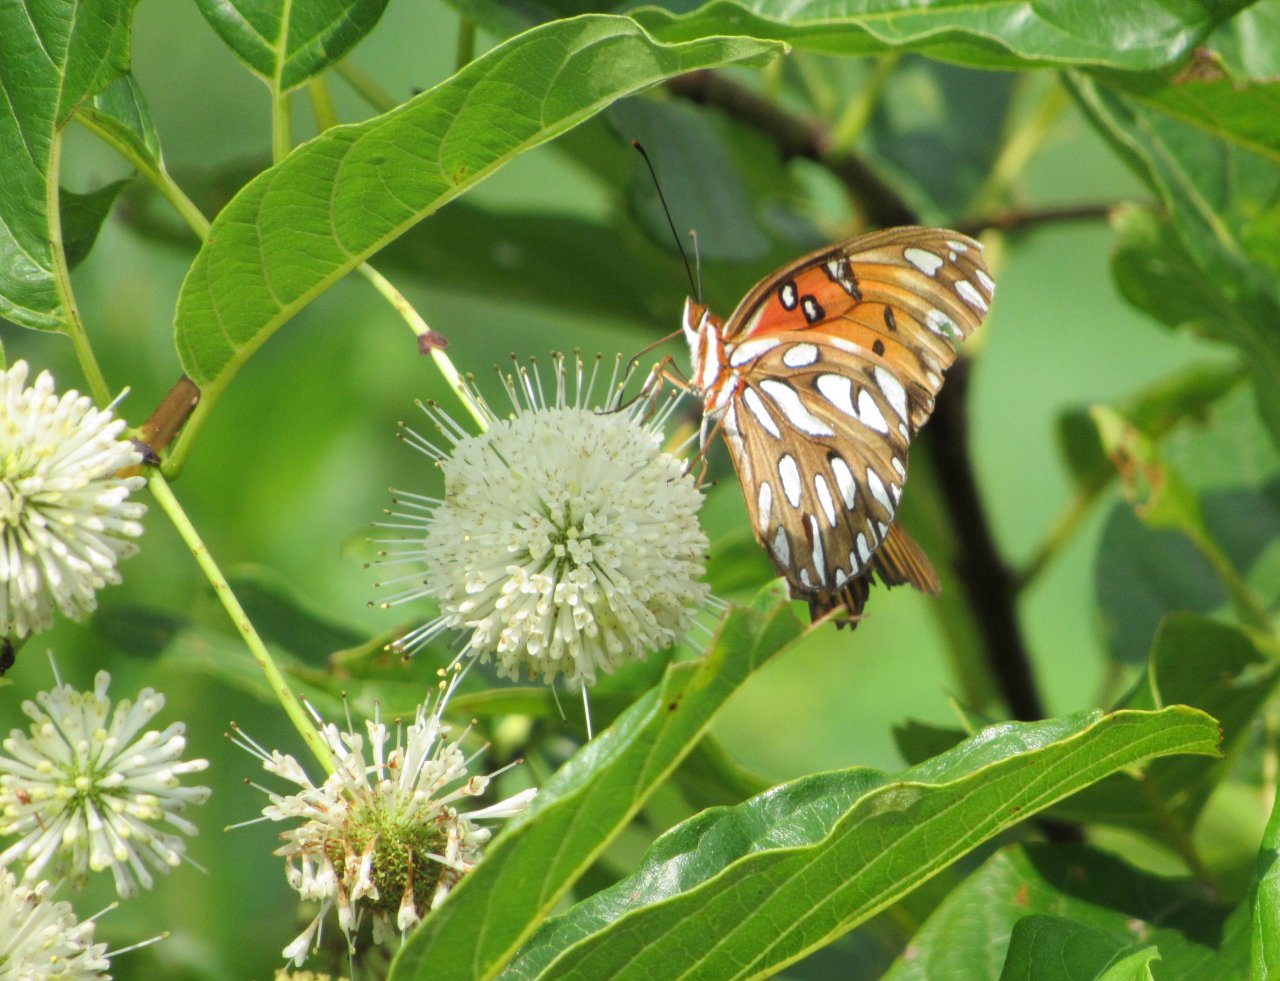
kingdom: Animalia
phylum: Arthropoda
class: Insecta
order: Lepidoptera
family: Nymphalidae
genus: Dione
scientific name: Dione vanillae
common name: Gulf Fritillary
